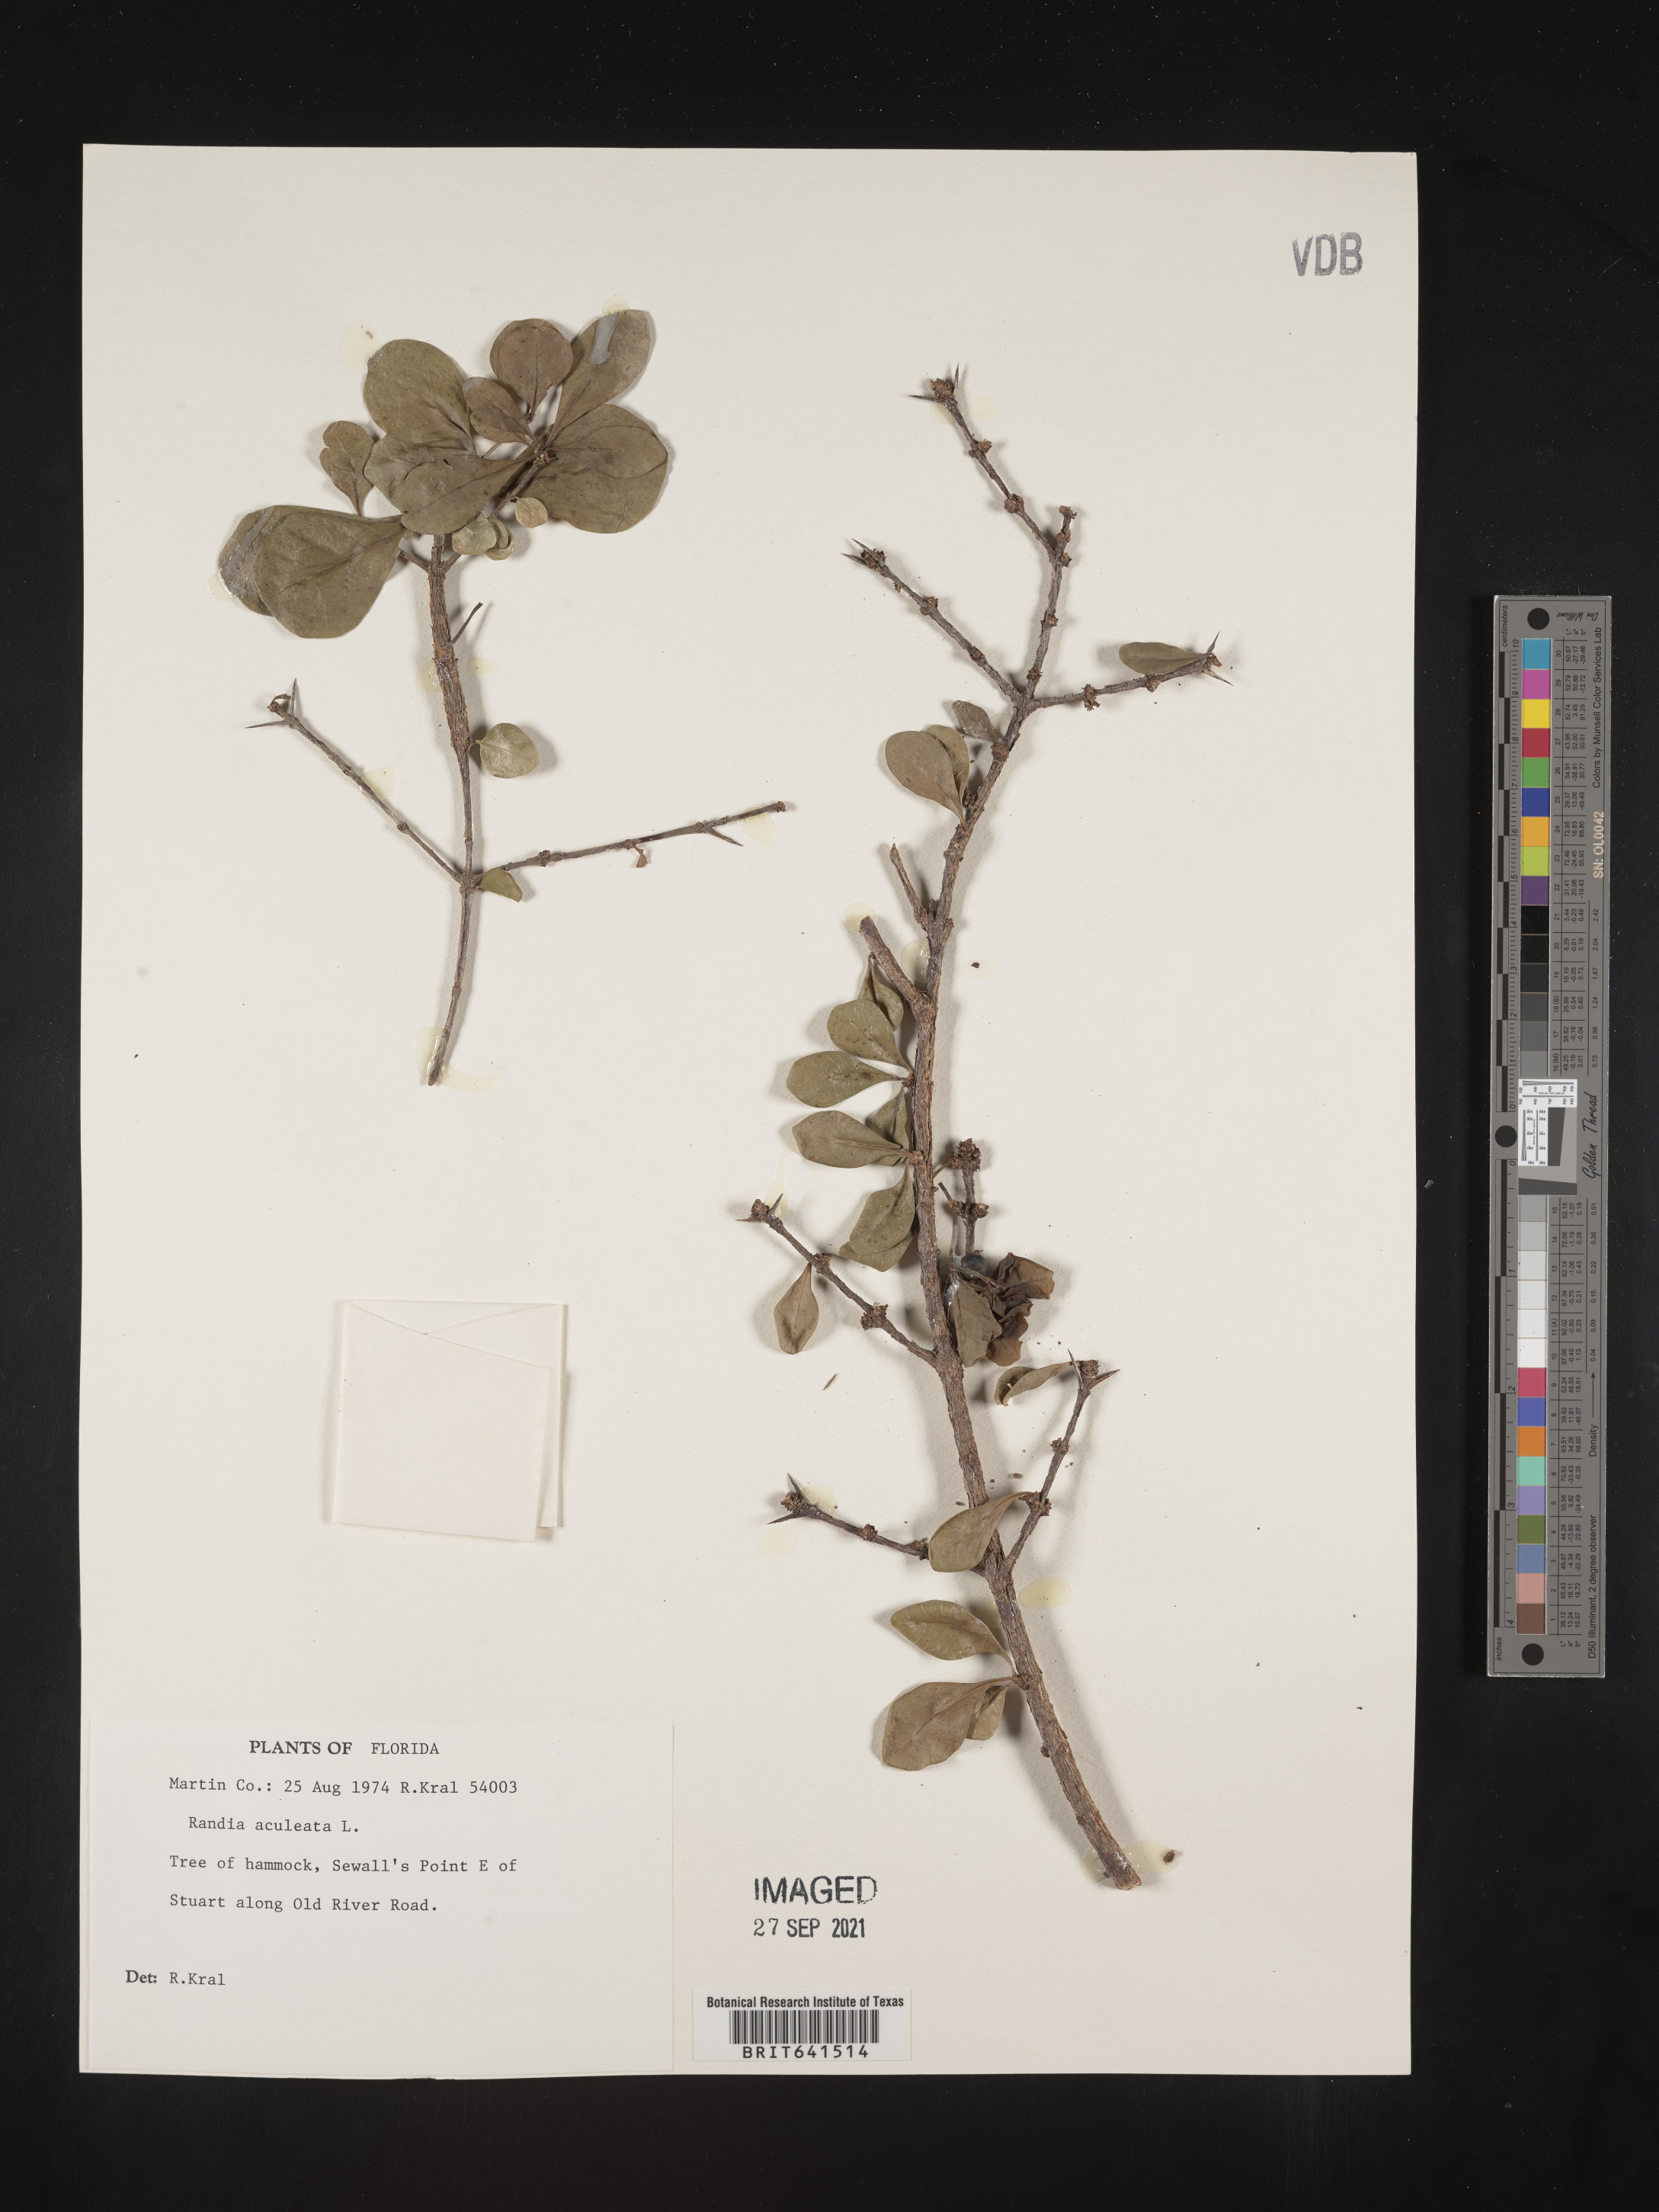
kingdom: Plantae
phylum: Tracheophyta
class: Magnoliopsida
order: Gentianales
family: Rubiaceae
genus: Randia
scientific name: Randia aculeata
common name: Inkberry
